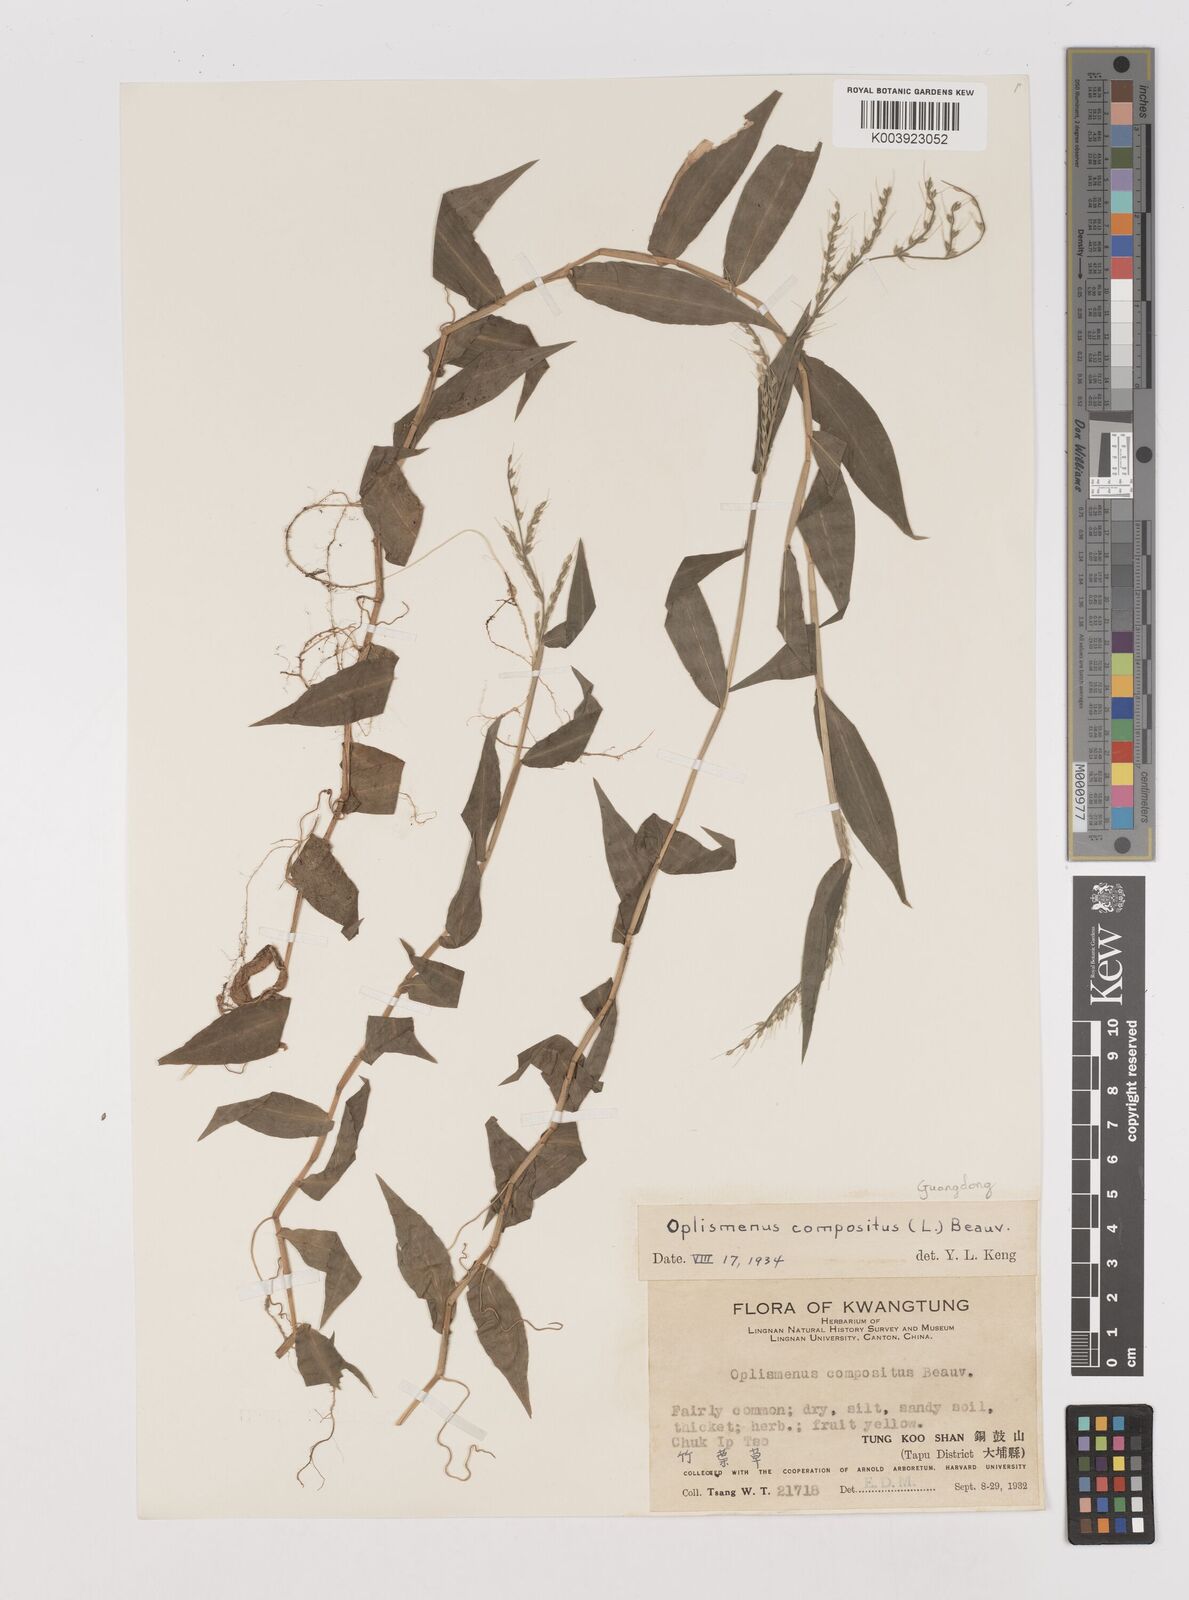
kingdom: Plantae
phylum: Tracheophyta
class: Liliopsida
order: Poales
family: Poaceae
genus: Oplismenus
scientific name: Oplismenus compositus
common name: Running mountain grass
